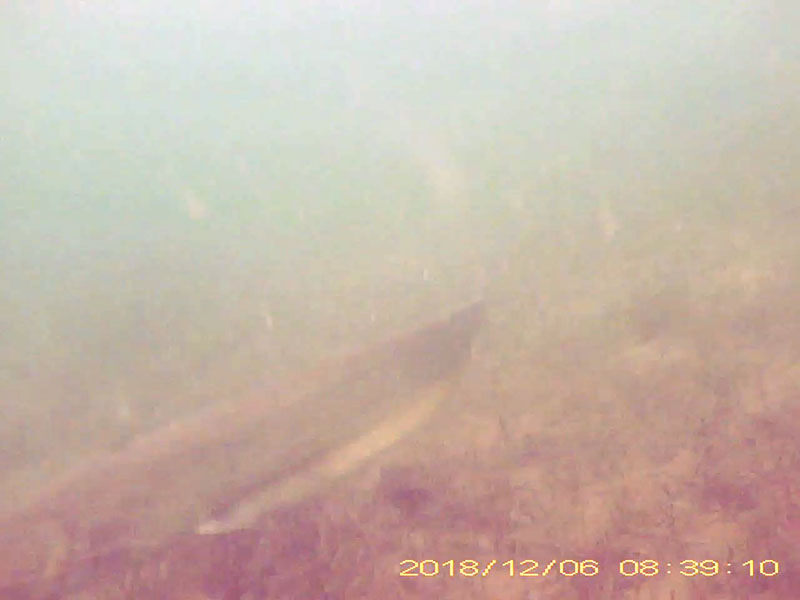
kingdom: Animalia
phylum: Chordata
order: Siluriformes
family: Siluridae
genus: Silurus
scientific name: Silurus
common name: ナマズ
